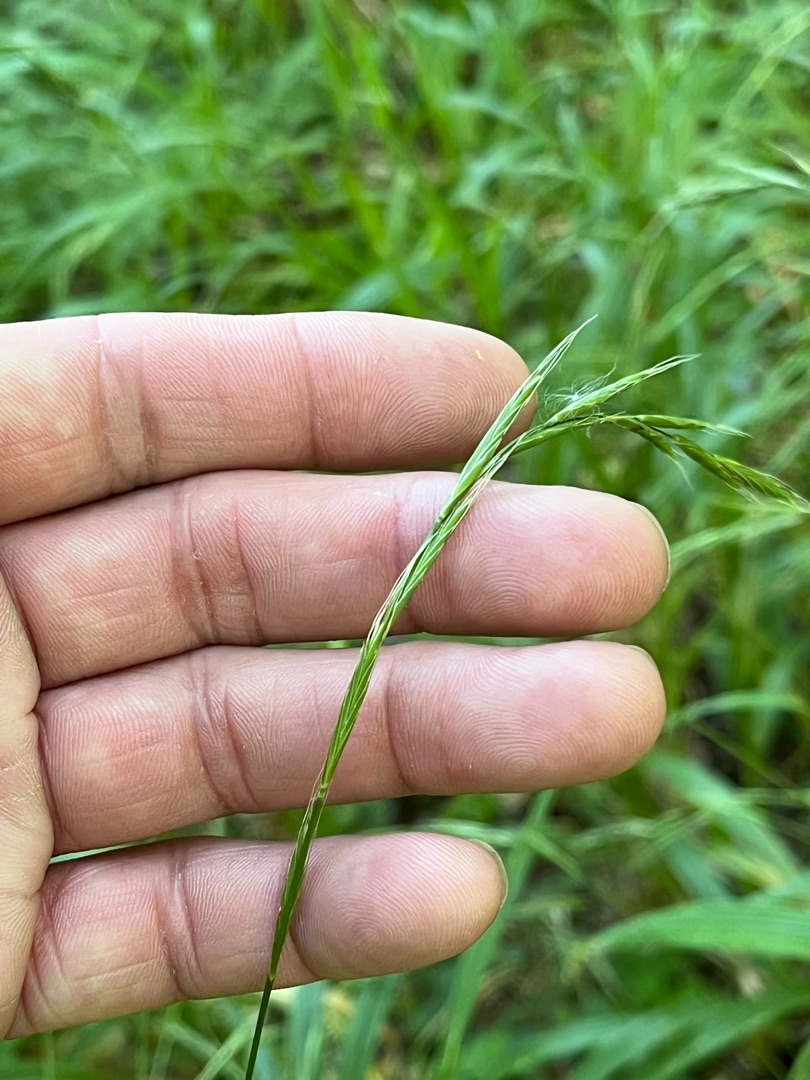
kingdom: Plantae
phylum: Tracheophyta
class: Liliopsida
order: Poales
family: Poaceae
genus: Brachypodium
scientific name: Brachypodium sylvaticum
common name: Skov-stilkaks
